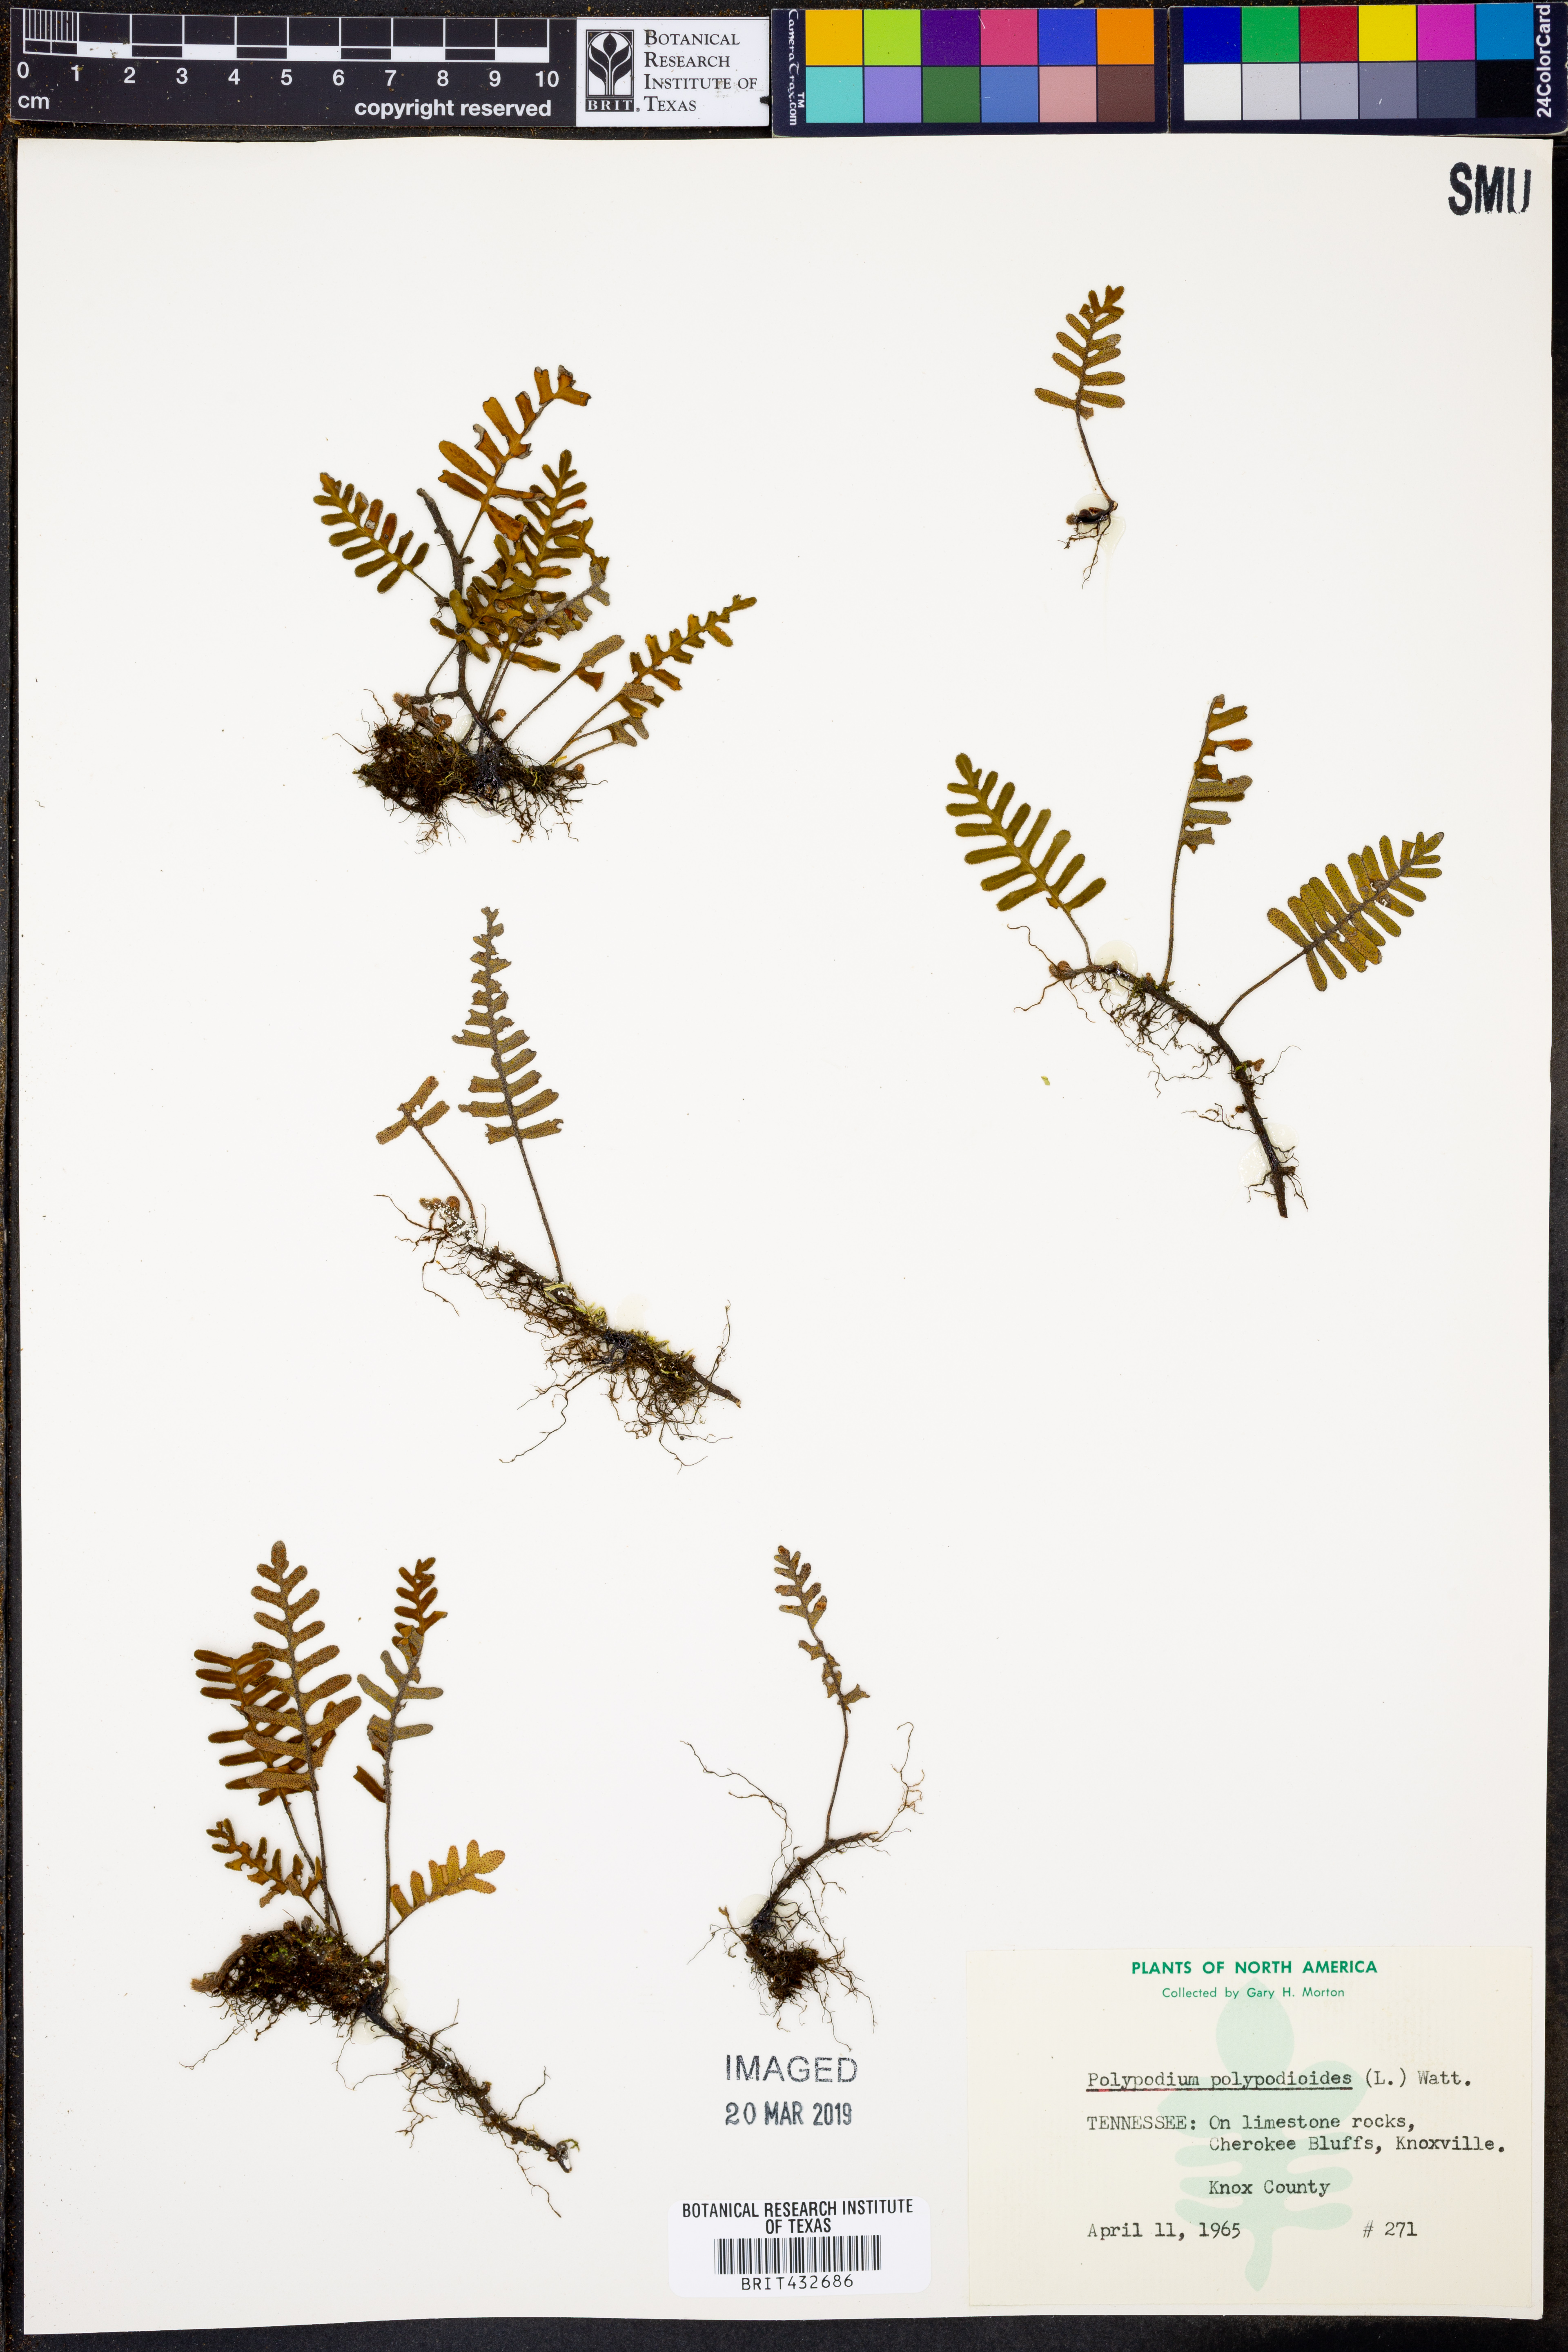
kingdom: Plantae
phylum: Tracheophyta
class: Polypodiopsida
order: Polypodiales
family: Polypodiaceae
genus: Pleopeltis
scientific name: Pleopeltis polypodioides
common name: Resurrection fern
